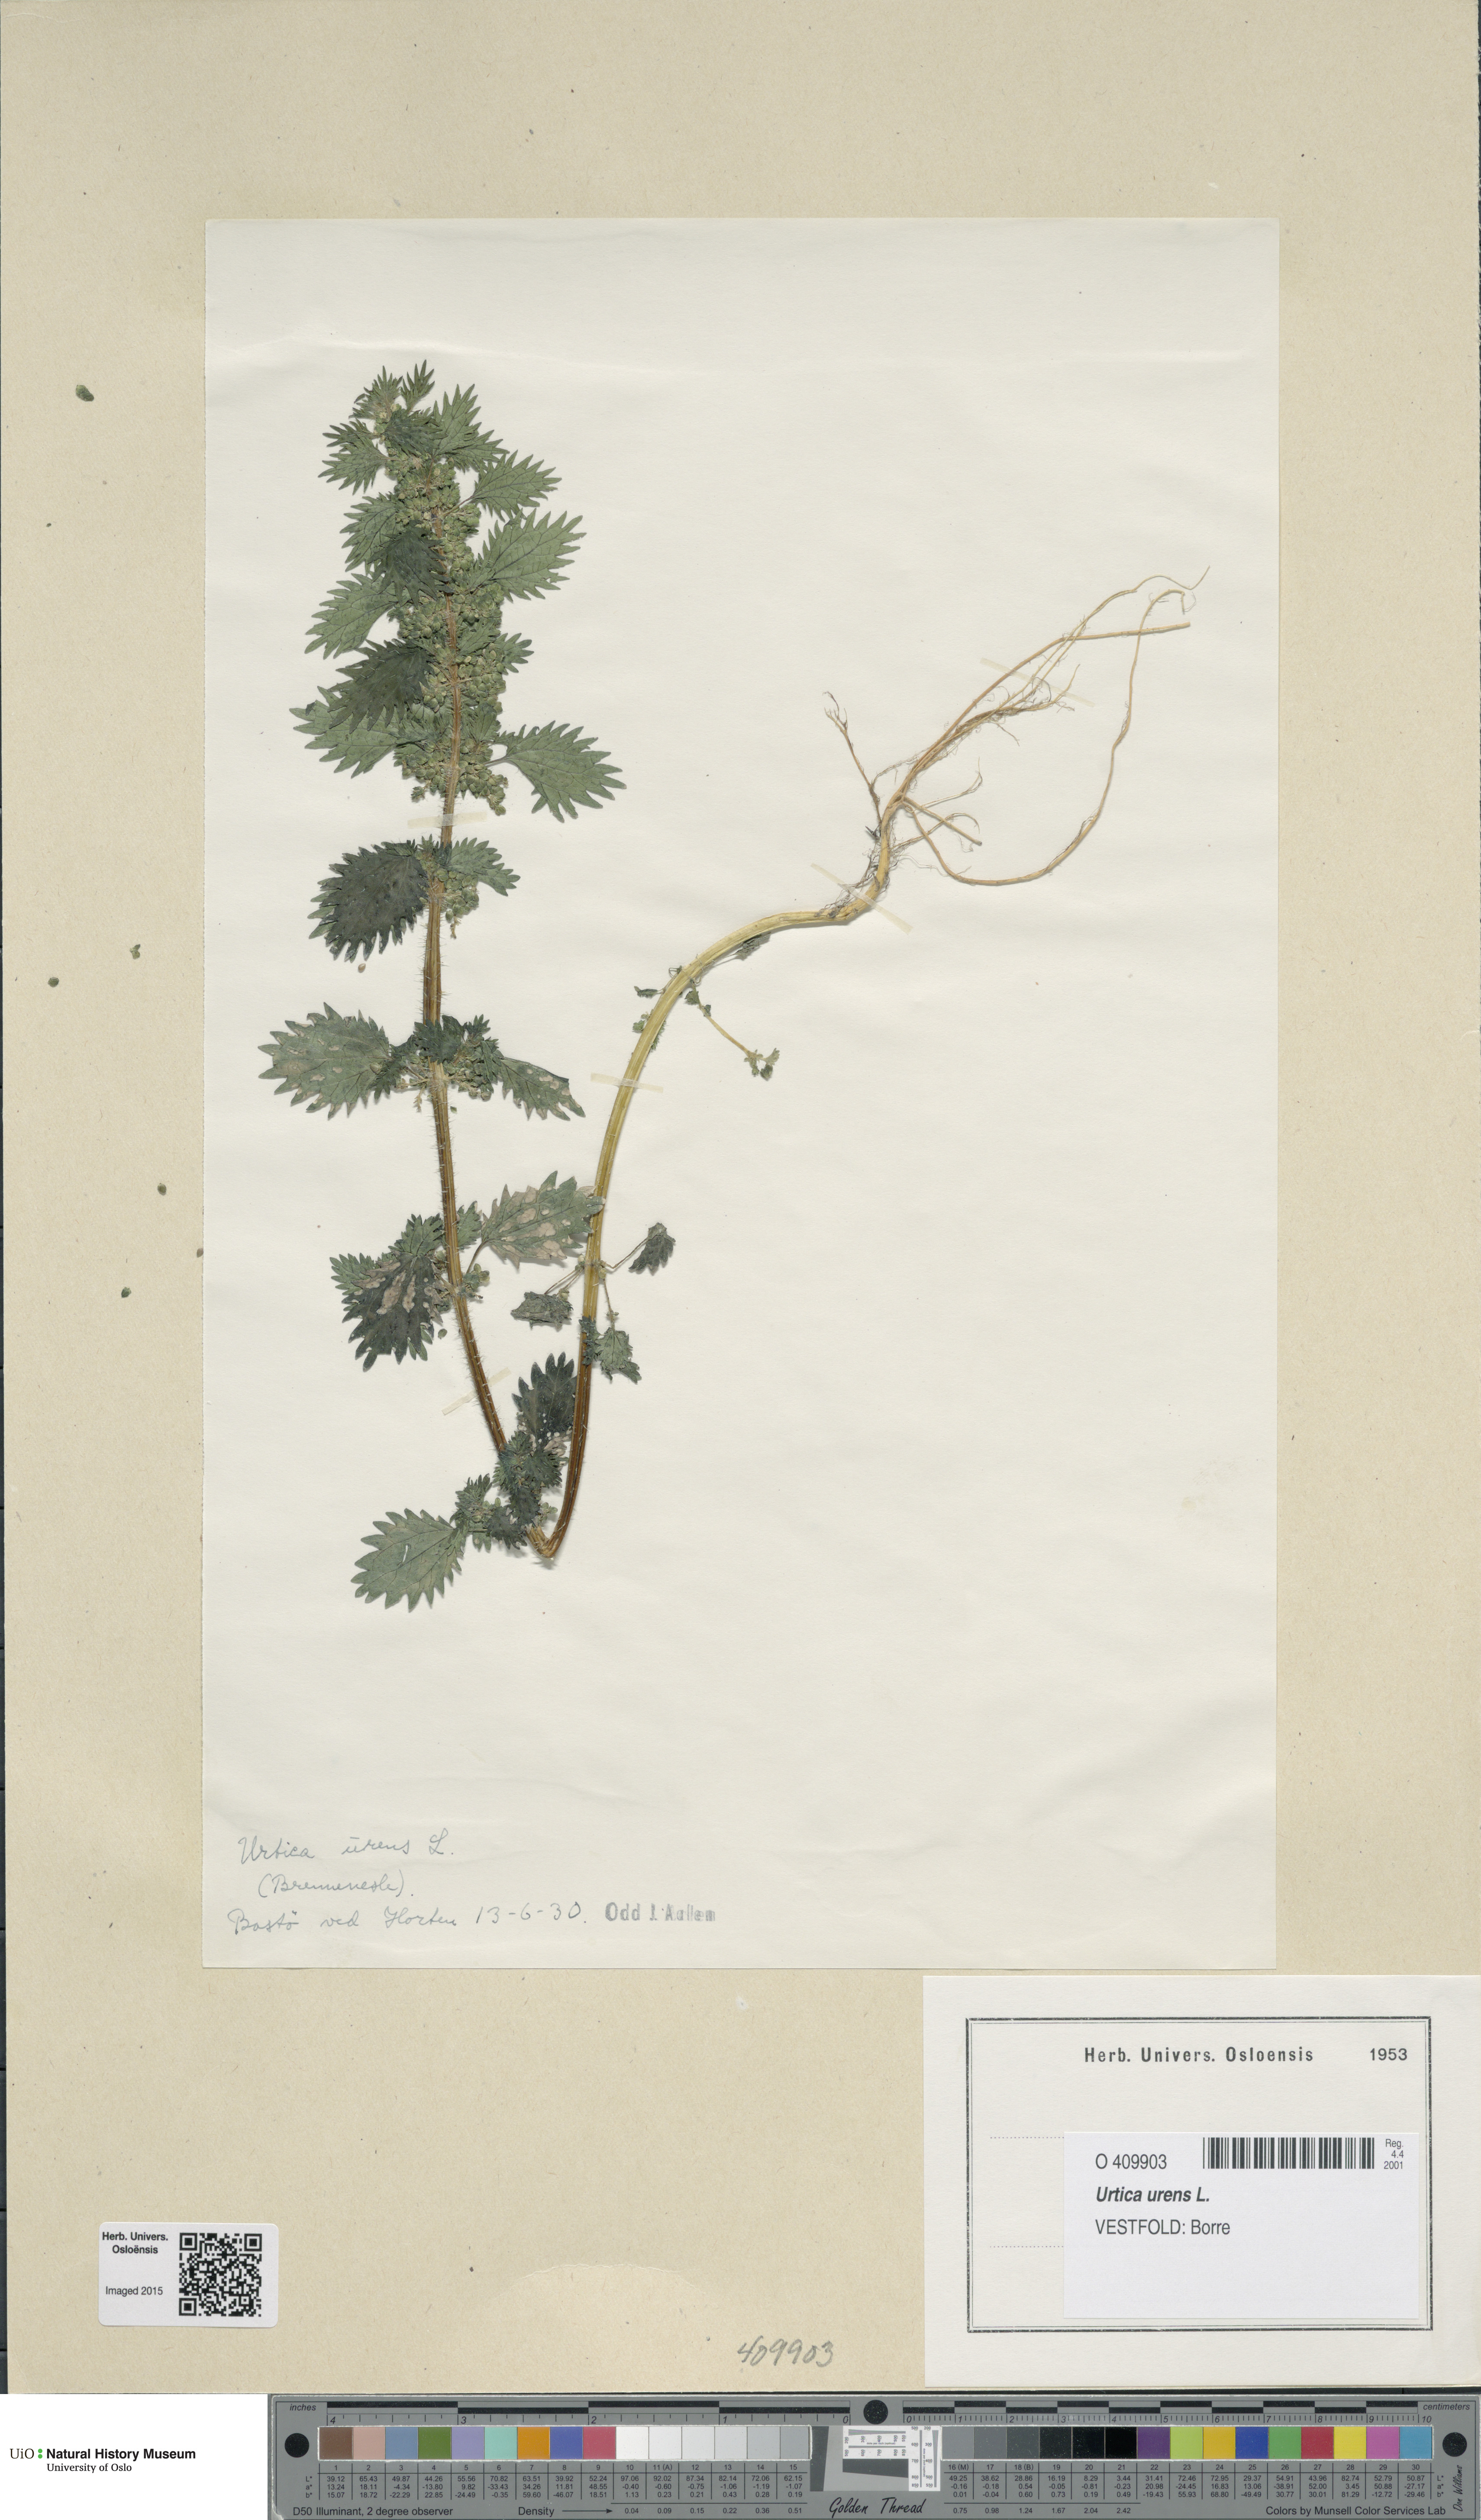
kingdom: Plantae
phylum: Tracheophyta
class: Magnoliopsida
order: Rosales
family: Urticaceae
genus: Urtica
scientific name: Urtica urens
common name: Dwarf nettle
